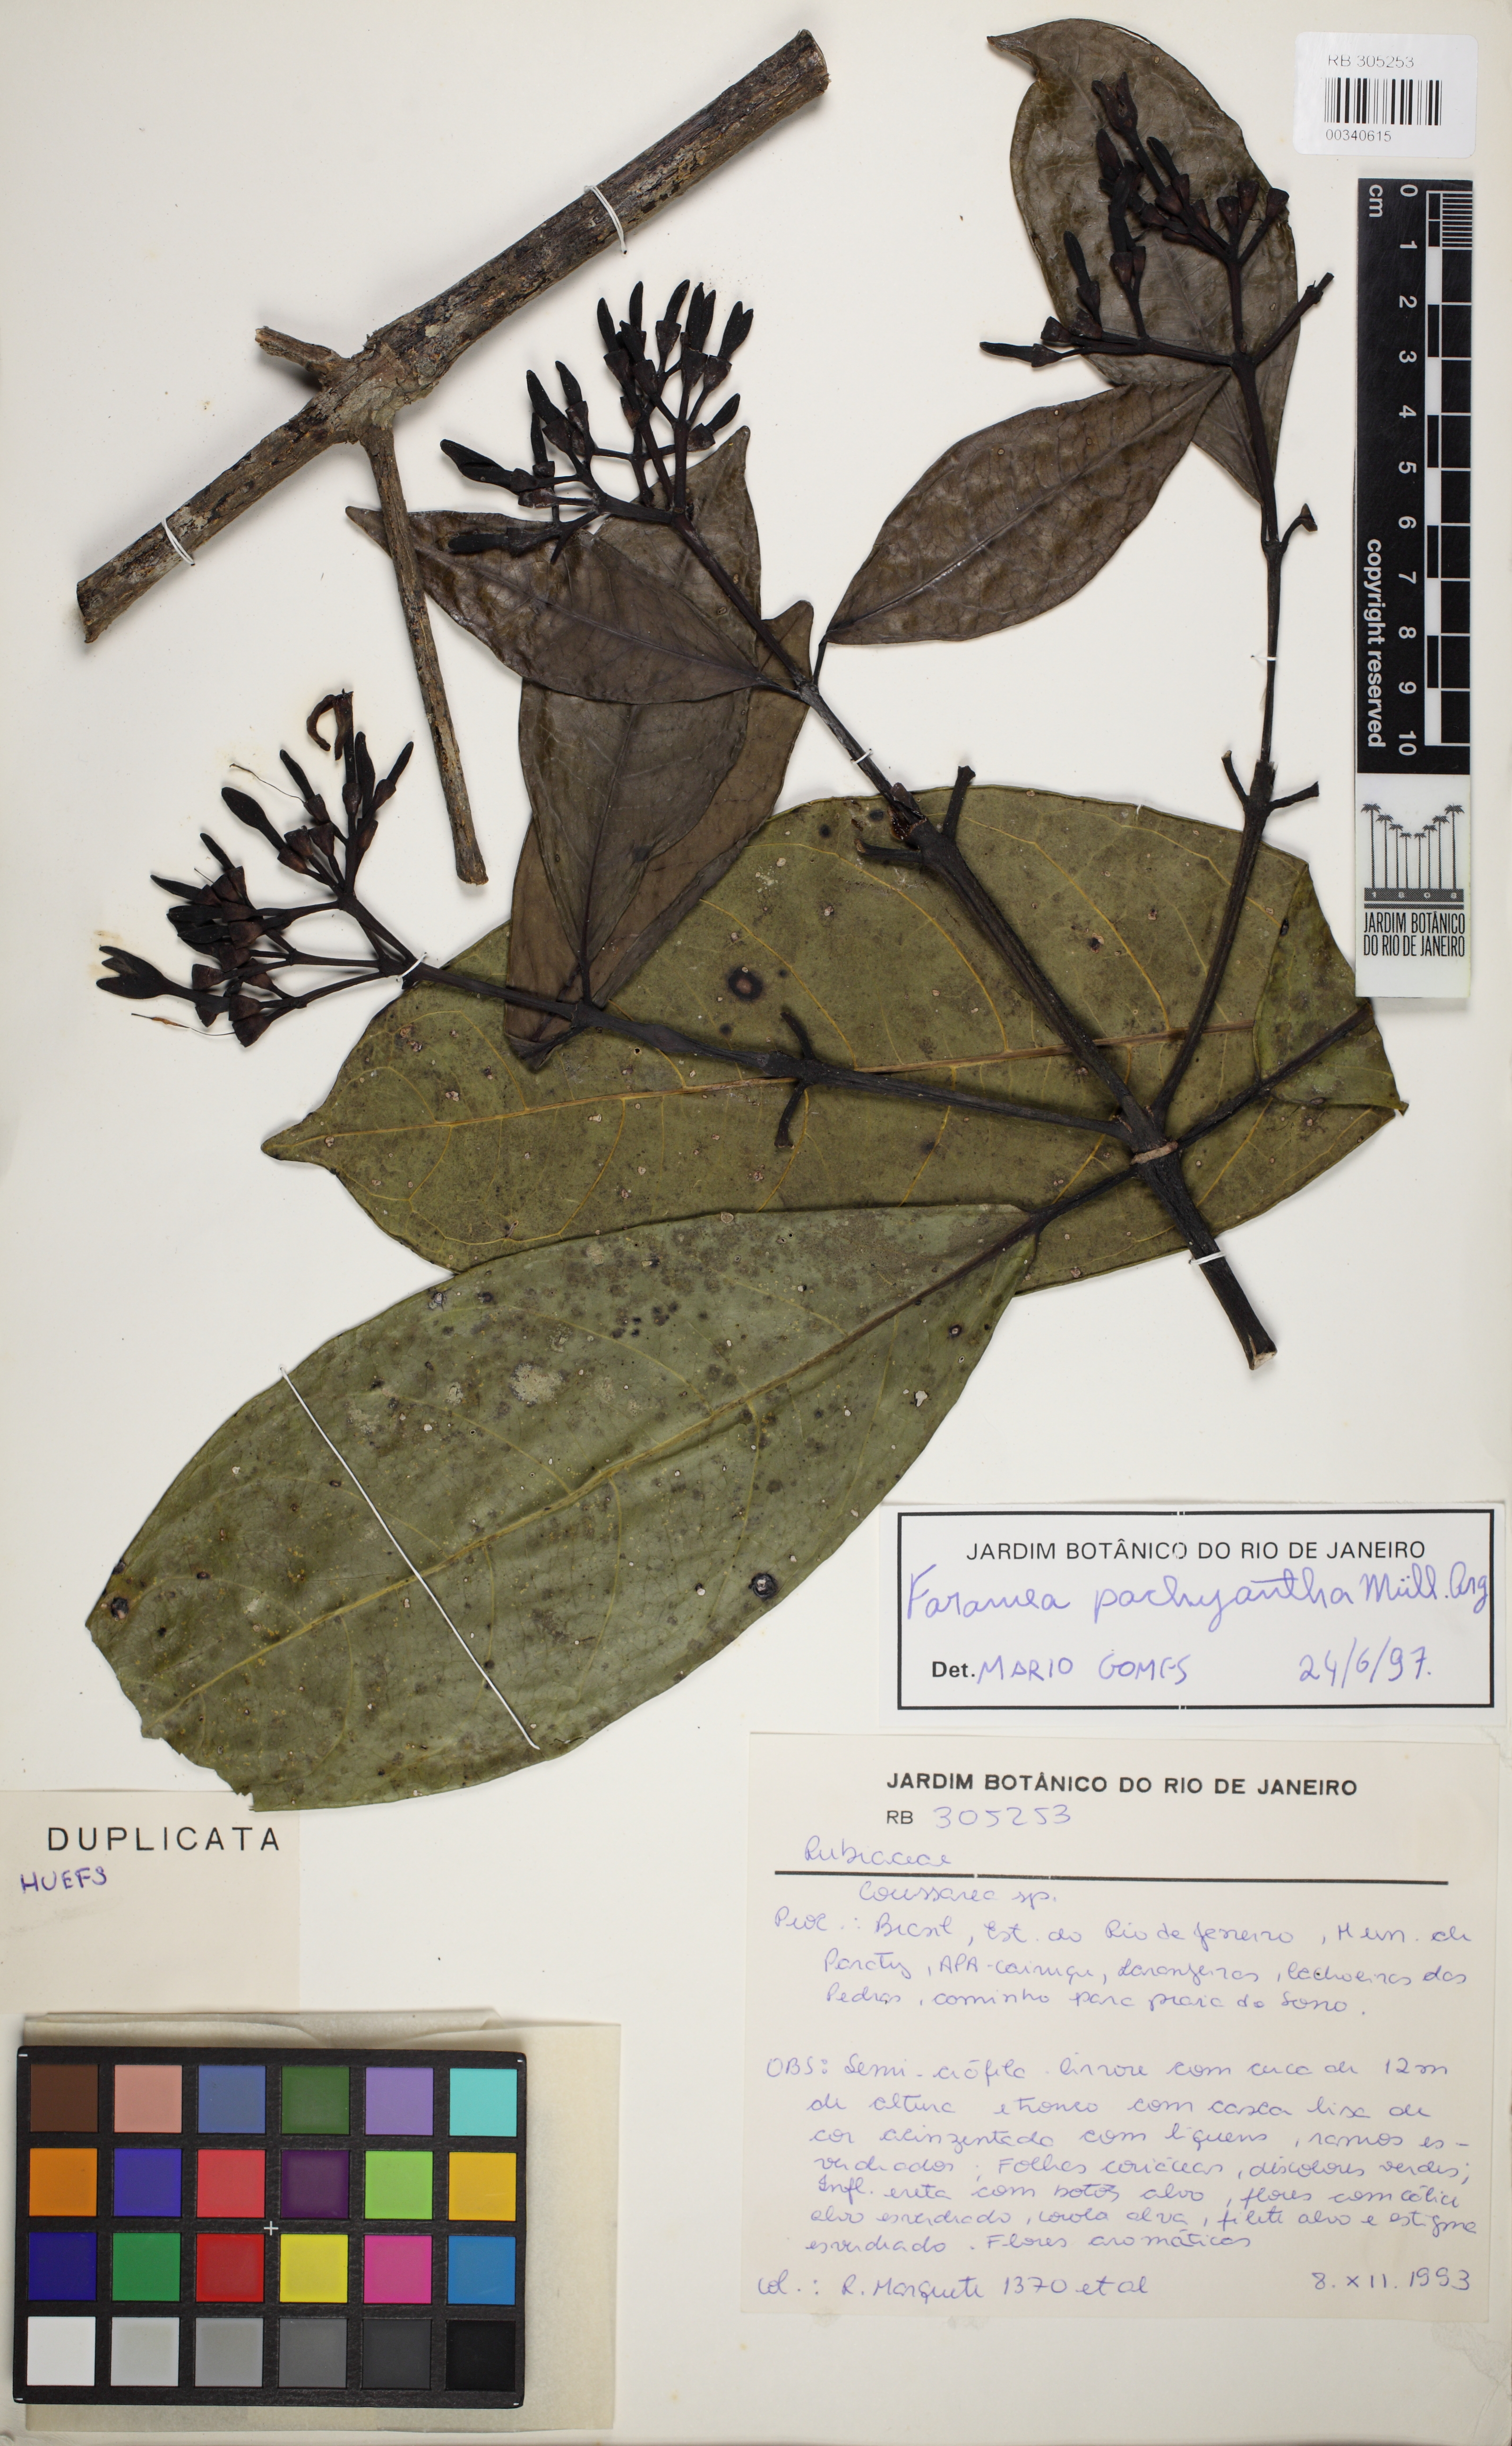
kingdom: Plantae
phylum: Tracheophyta
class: Magnoliopsida
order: Gentianales
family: Rubiaceae
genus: Faramea
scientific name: Faramea pachyantha
